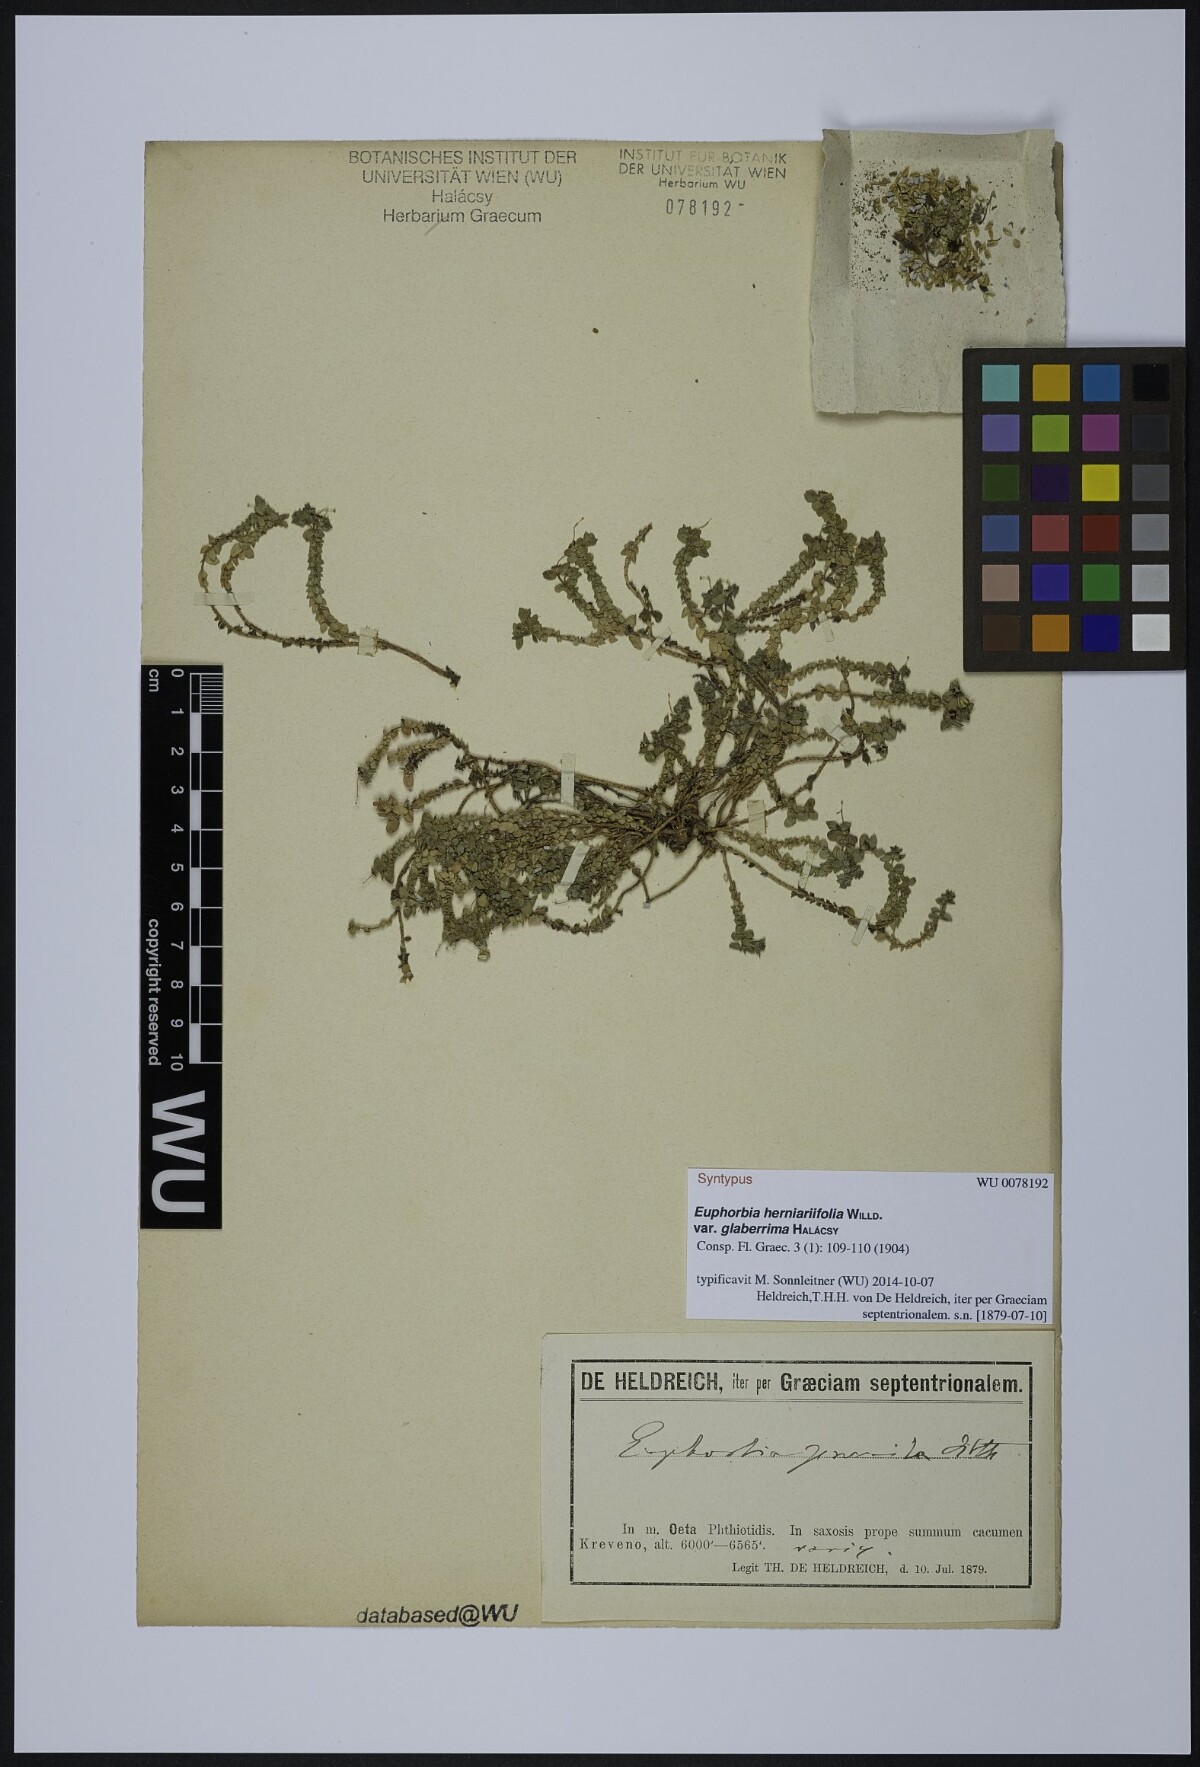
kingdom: Plantae
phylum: Tracheophyta
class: Magnoliopsida
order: Malpighiales
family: Euphorbiaceae
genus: Euphorbia
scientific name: Euphorbia herniariifolia
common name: Herniaria-leaf spurge
